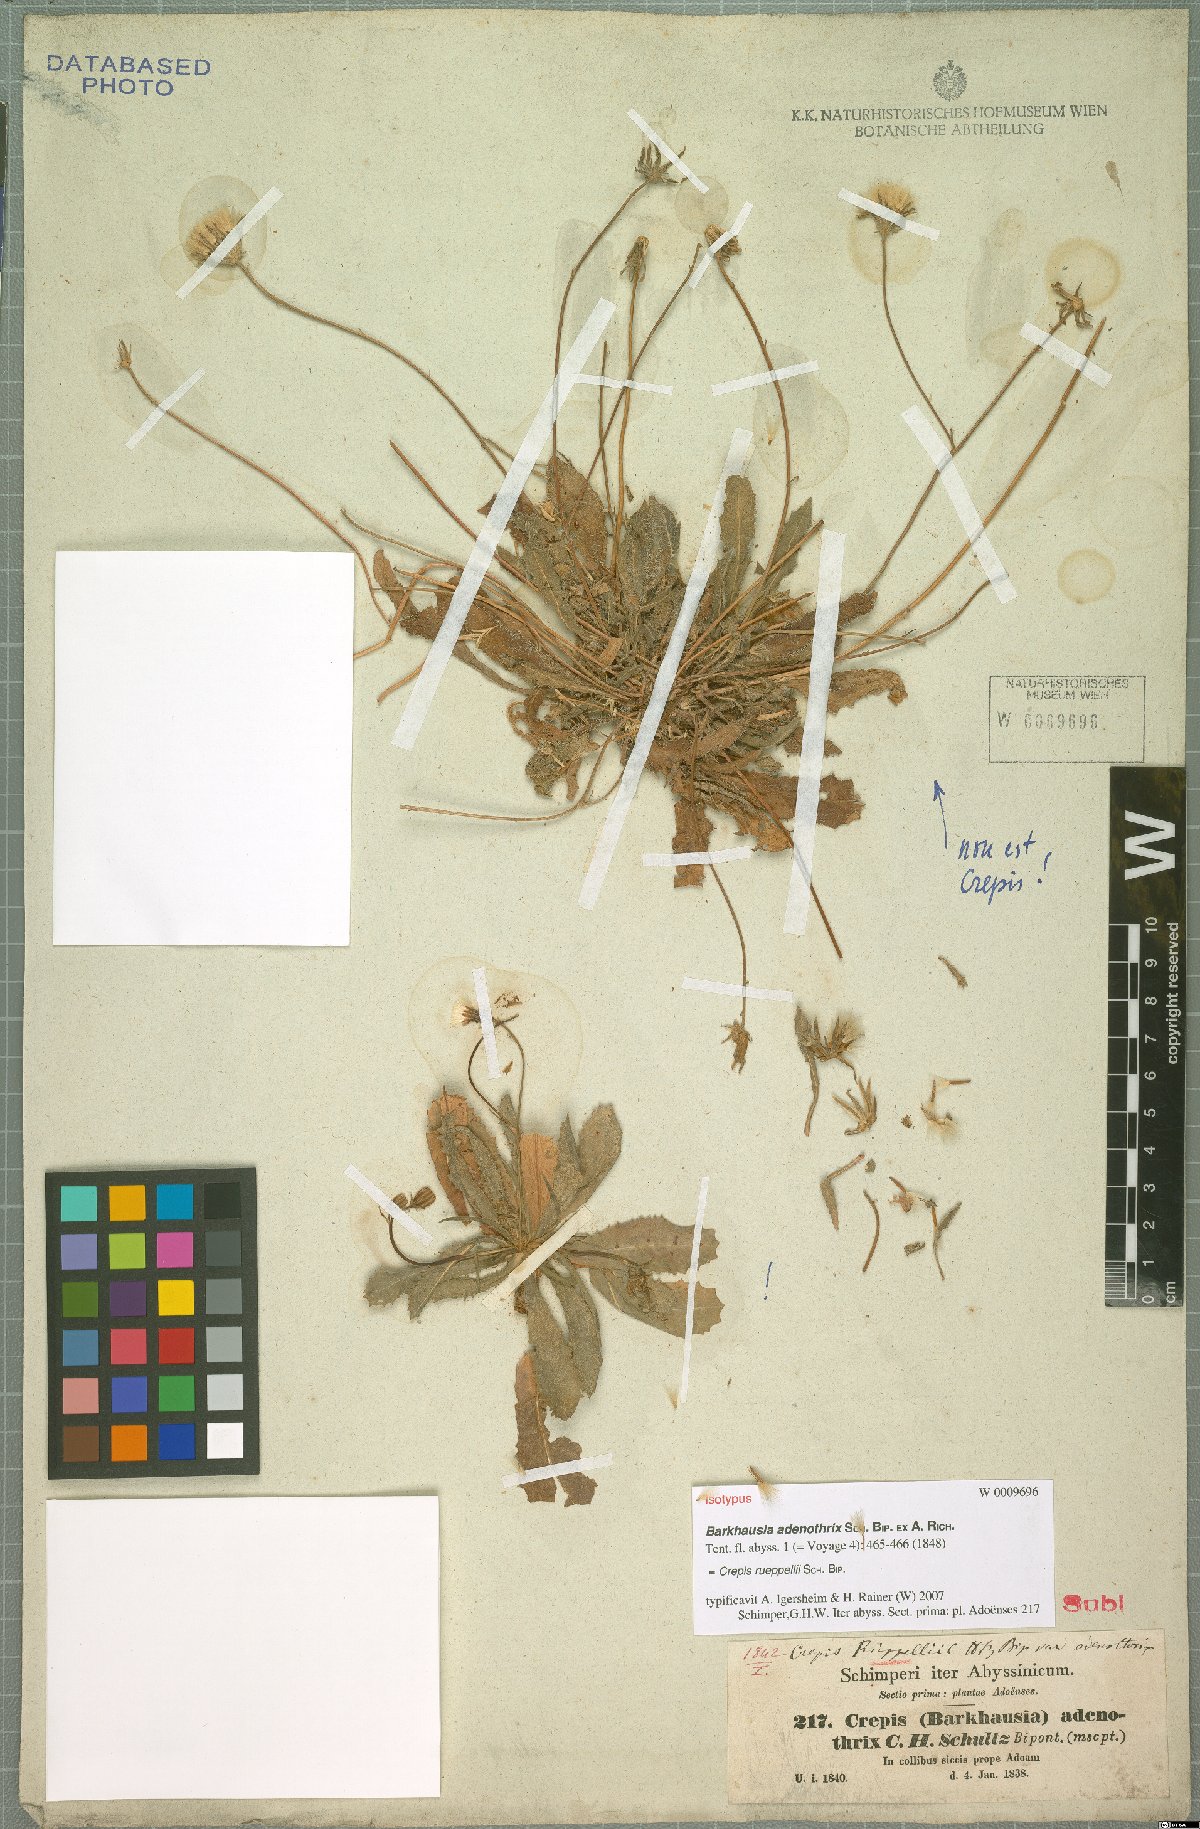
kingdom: Plantae
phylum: Tracheophyta
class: Magnoliopsida
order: Asterales
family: Asteraceae
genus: Crepis
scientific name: Crepis rueppellii
